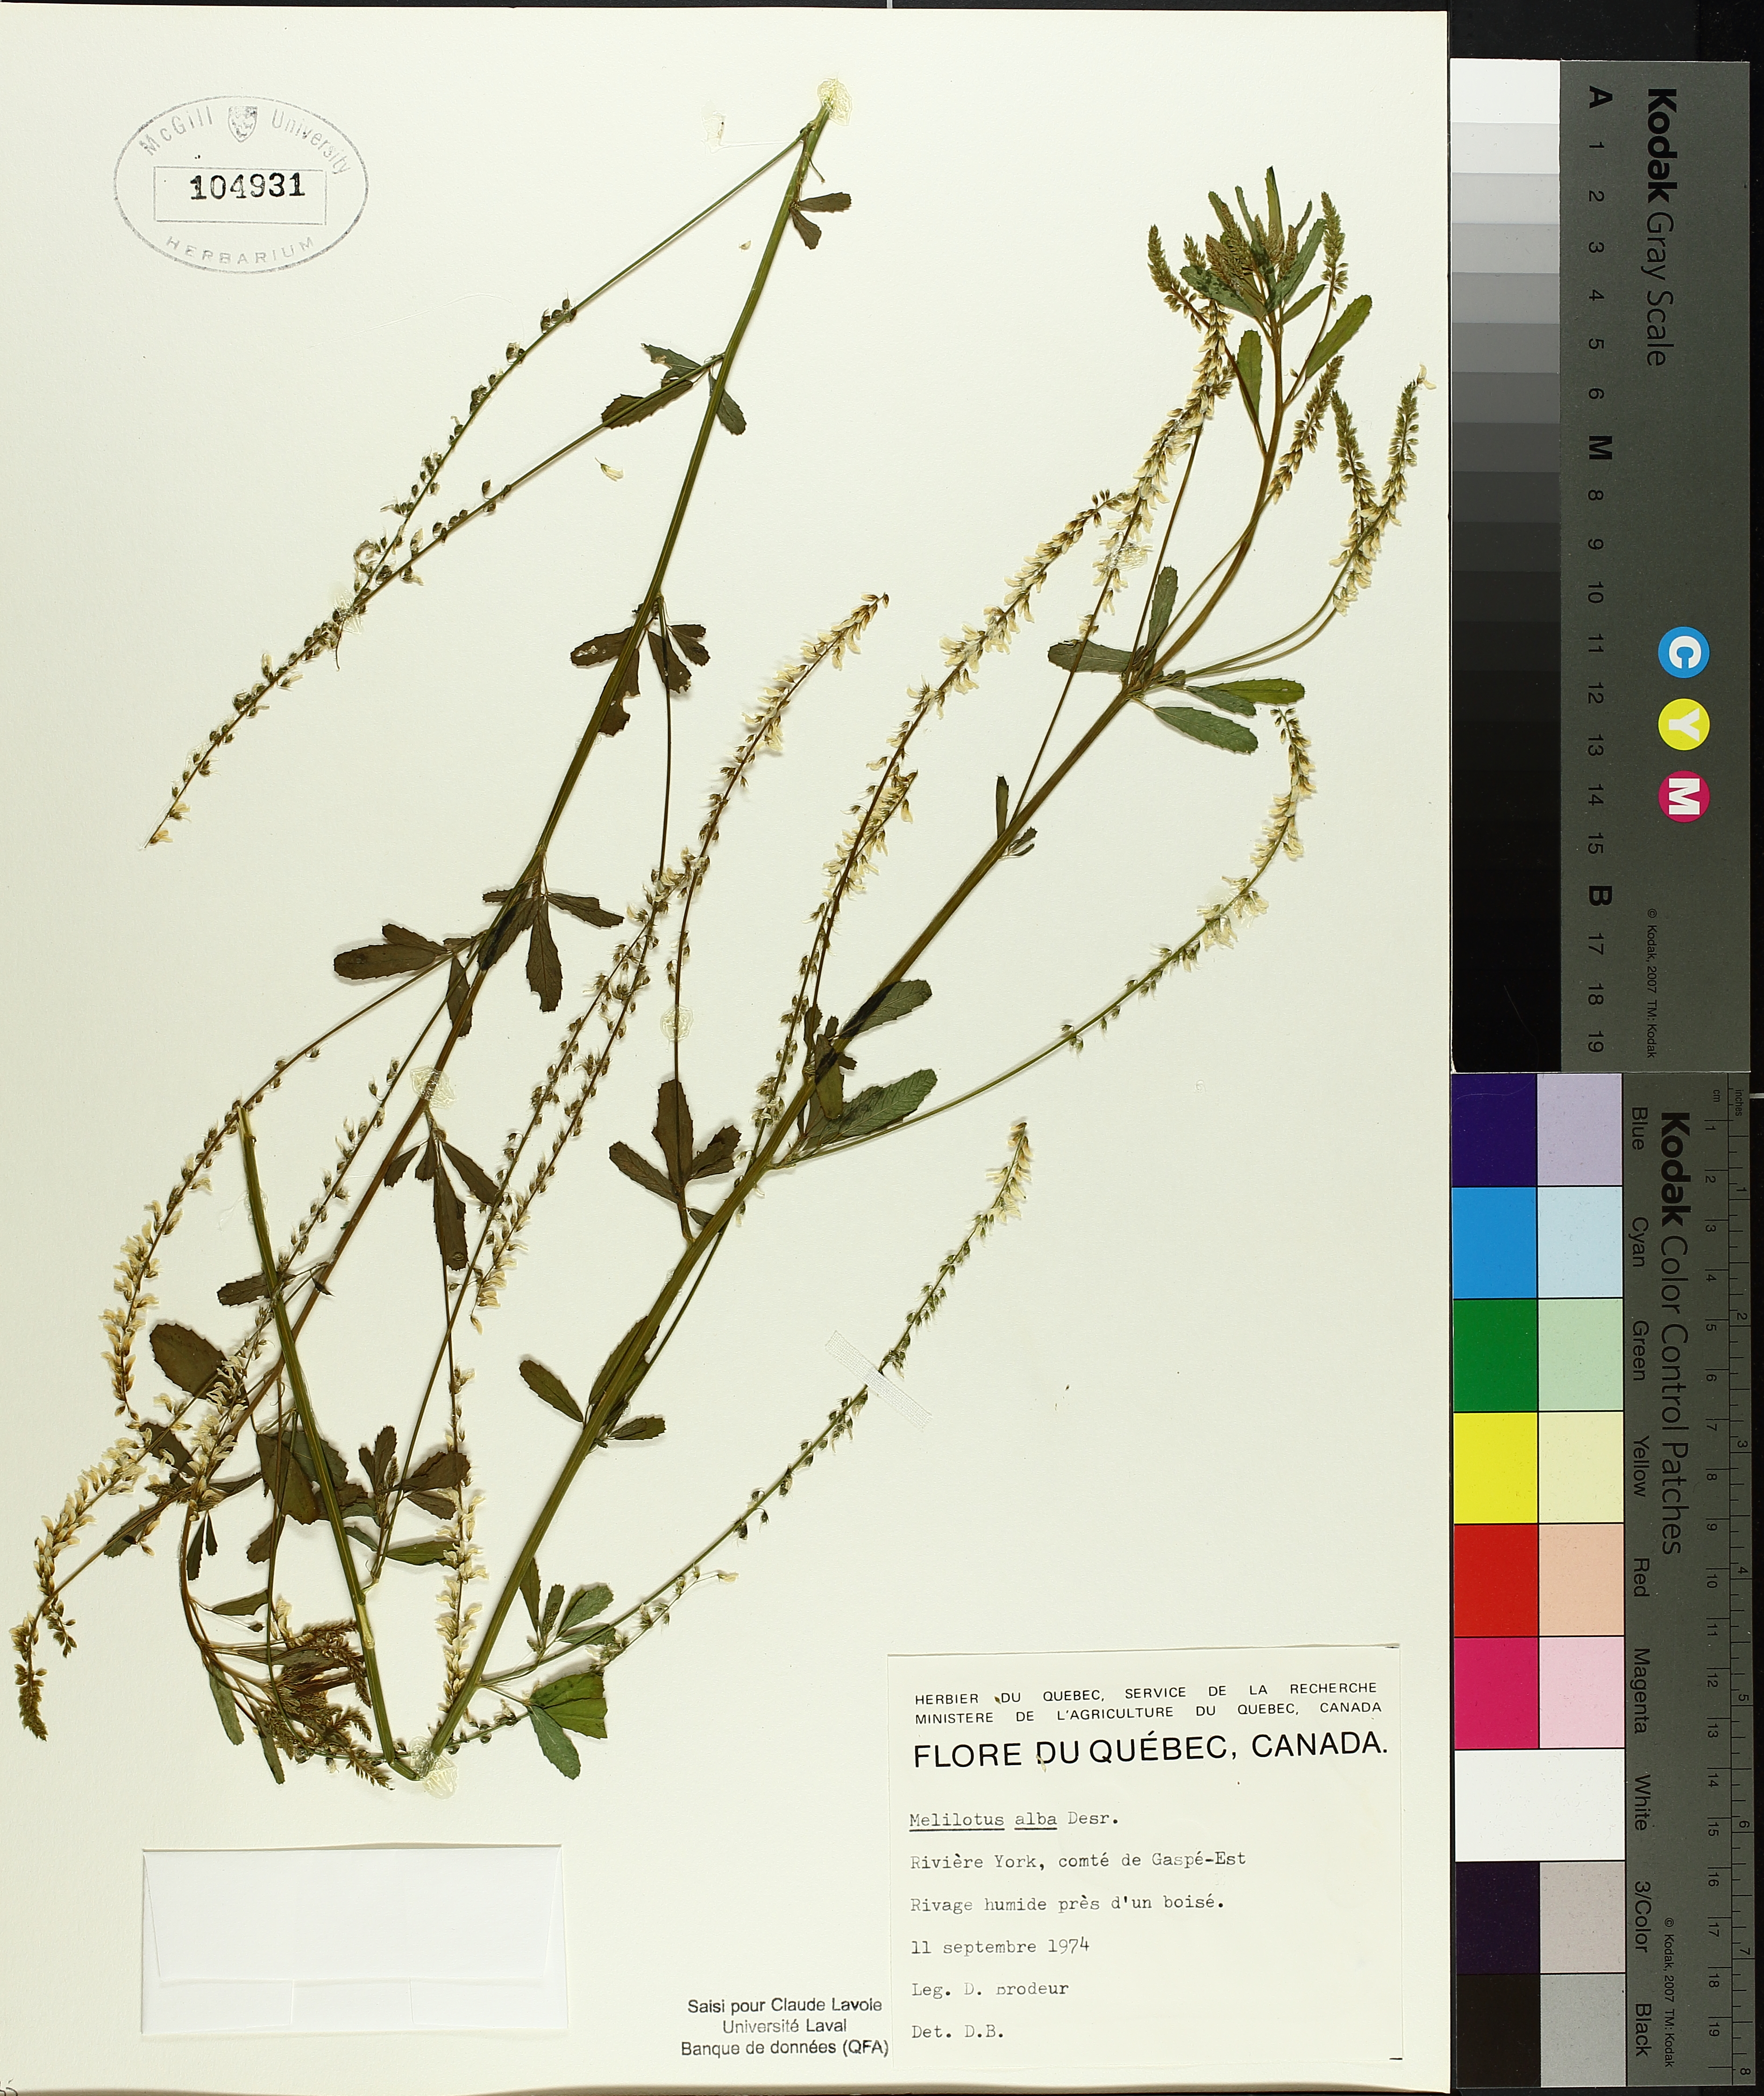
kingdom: Plantae
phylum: Tracheophyta
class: Liliopsida
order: Poales
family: Cyperaceae
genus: Carex
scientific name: Carex echinata
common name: Star sedge
